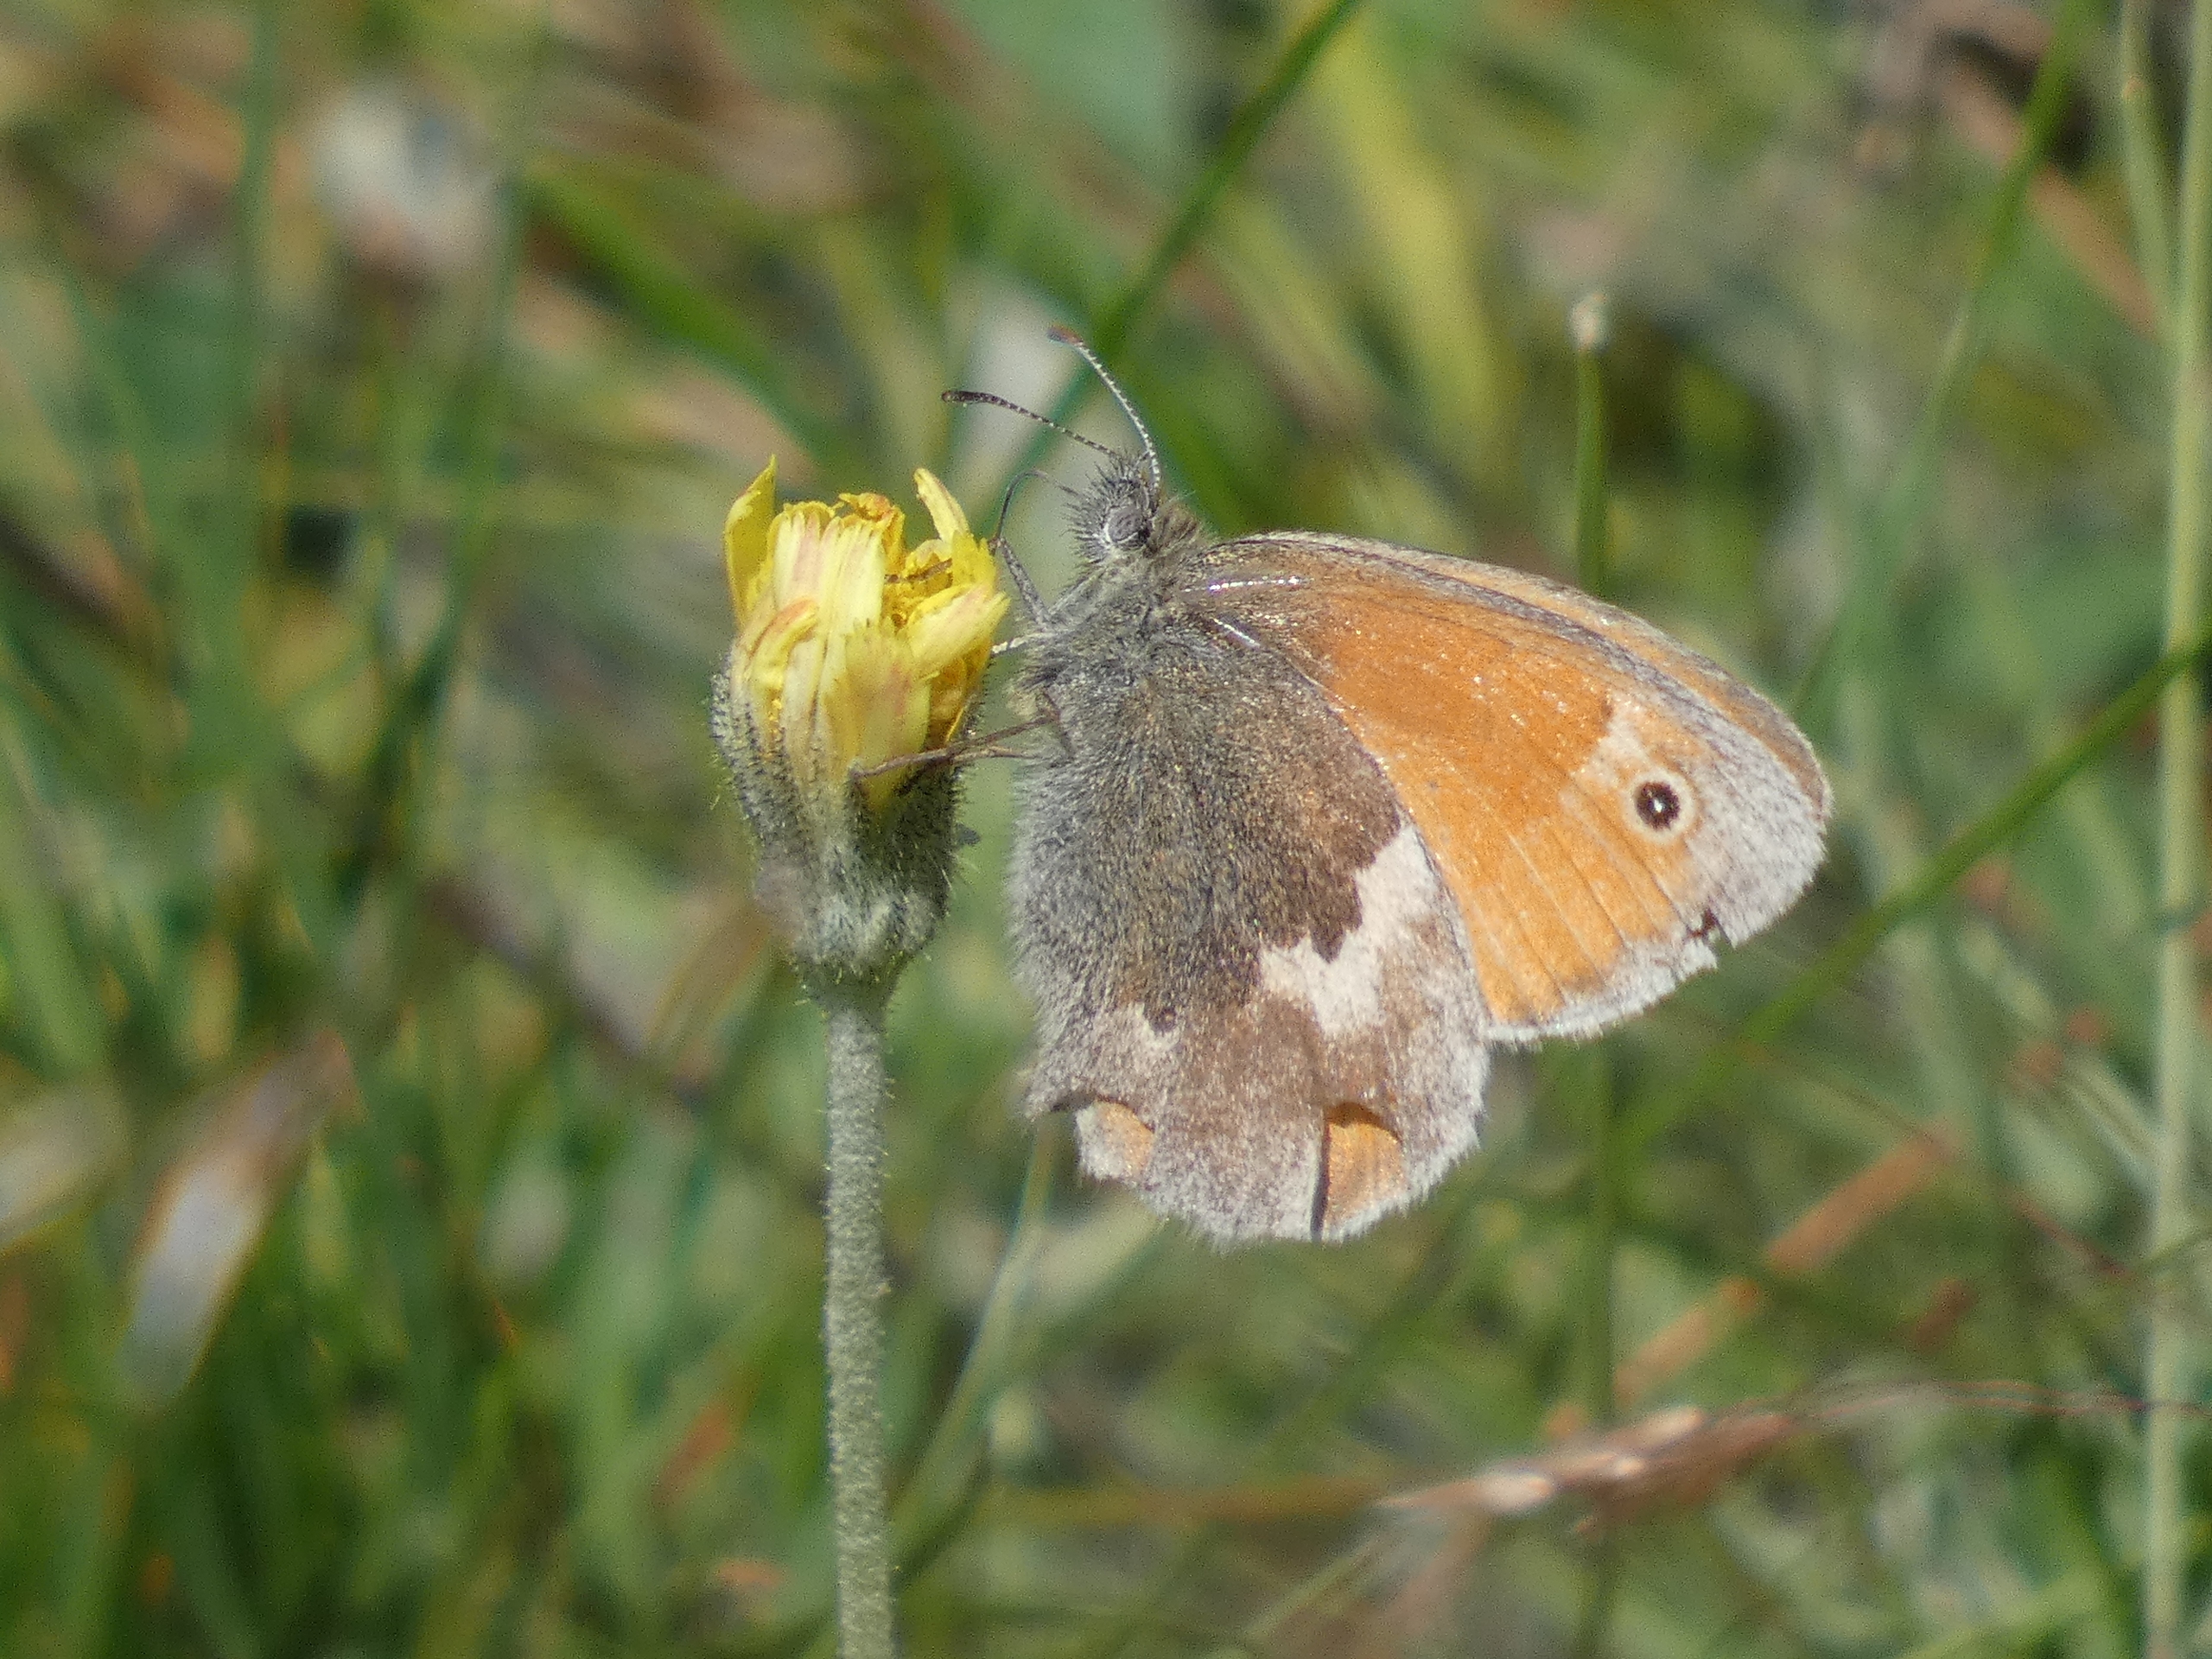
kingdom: Animalia
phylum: Arthropoda
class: Insecta
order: Lepidoptera
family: Nymphalidae
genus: Coenonympha
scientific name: Coenonympha pamphilus
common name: Okkergul randøje
